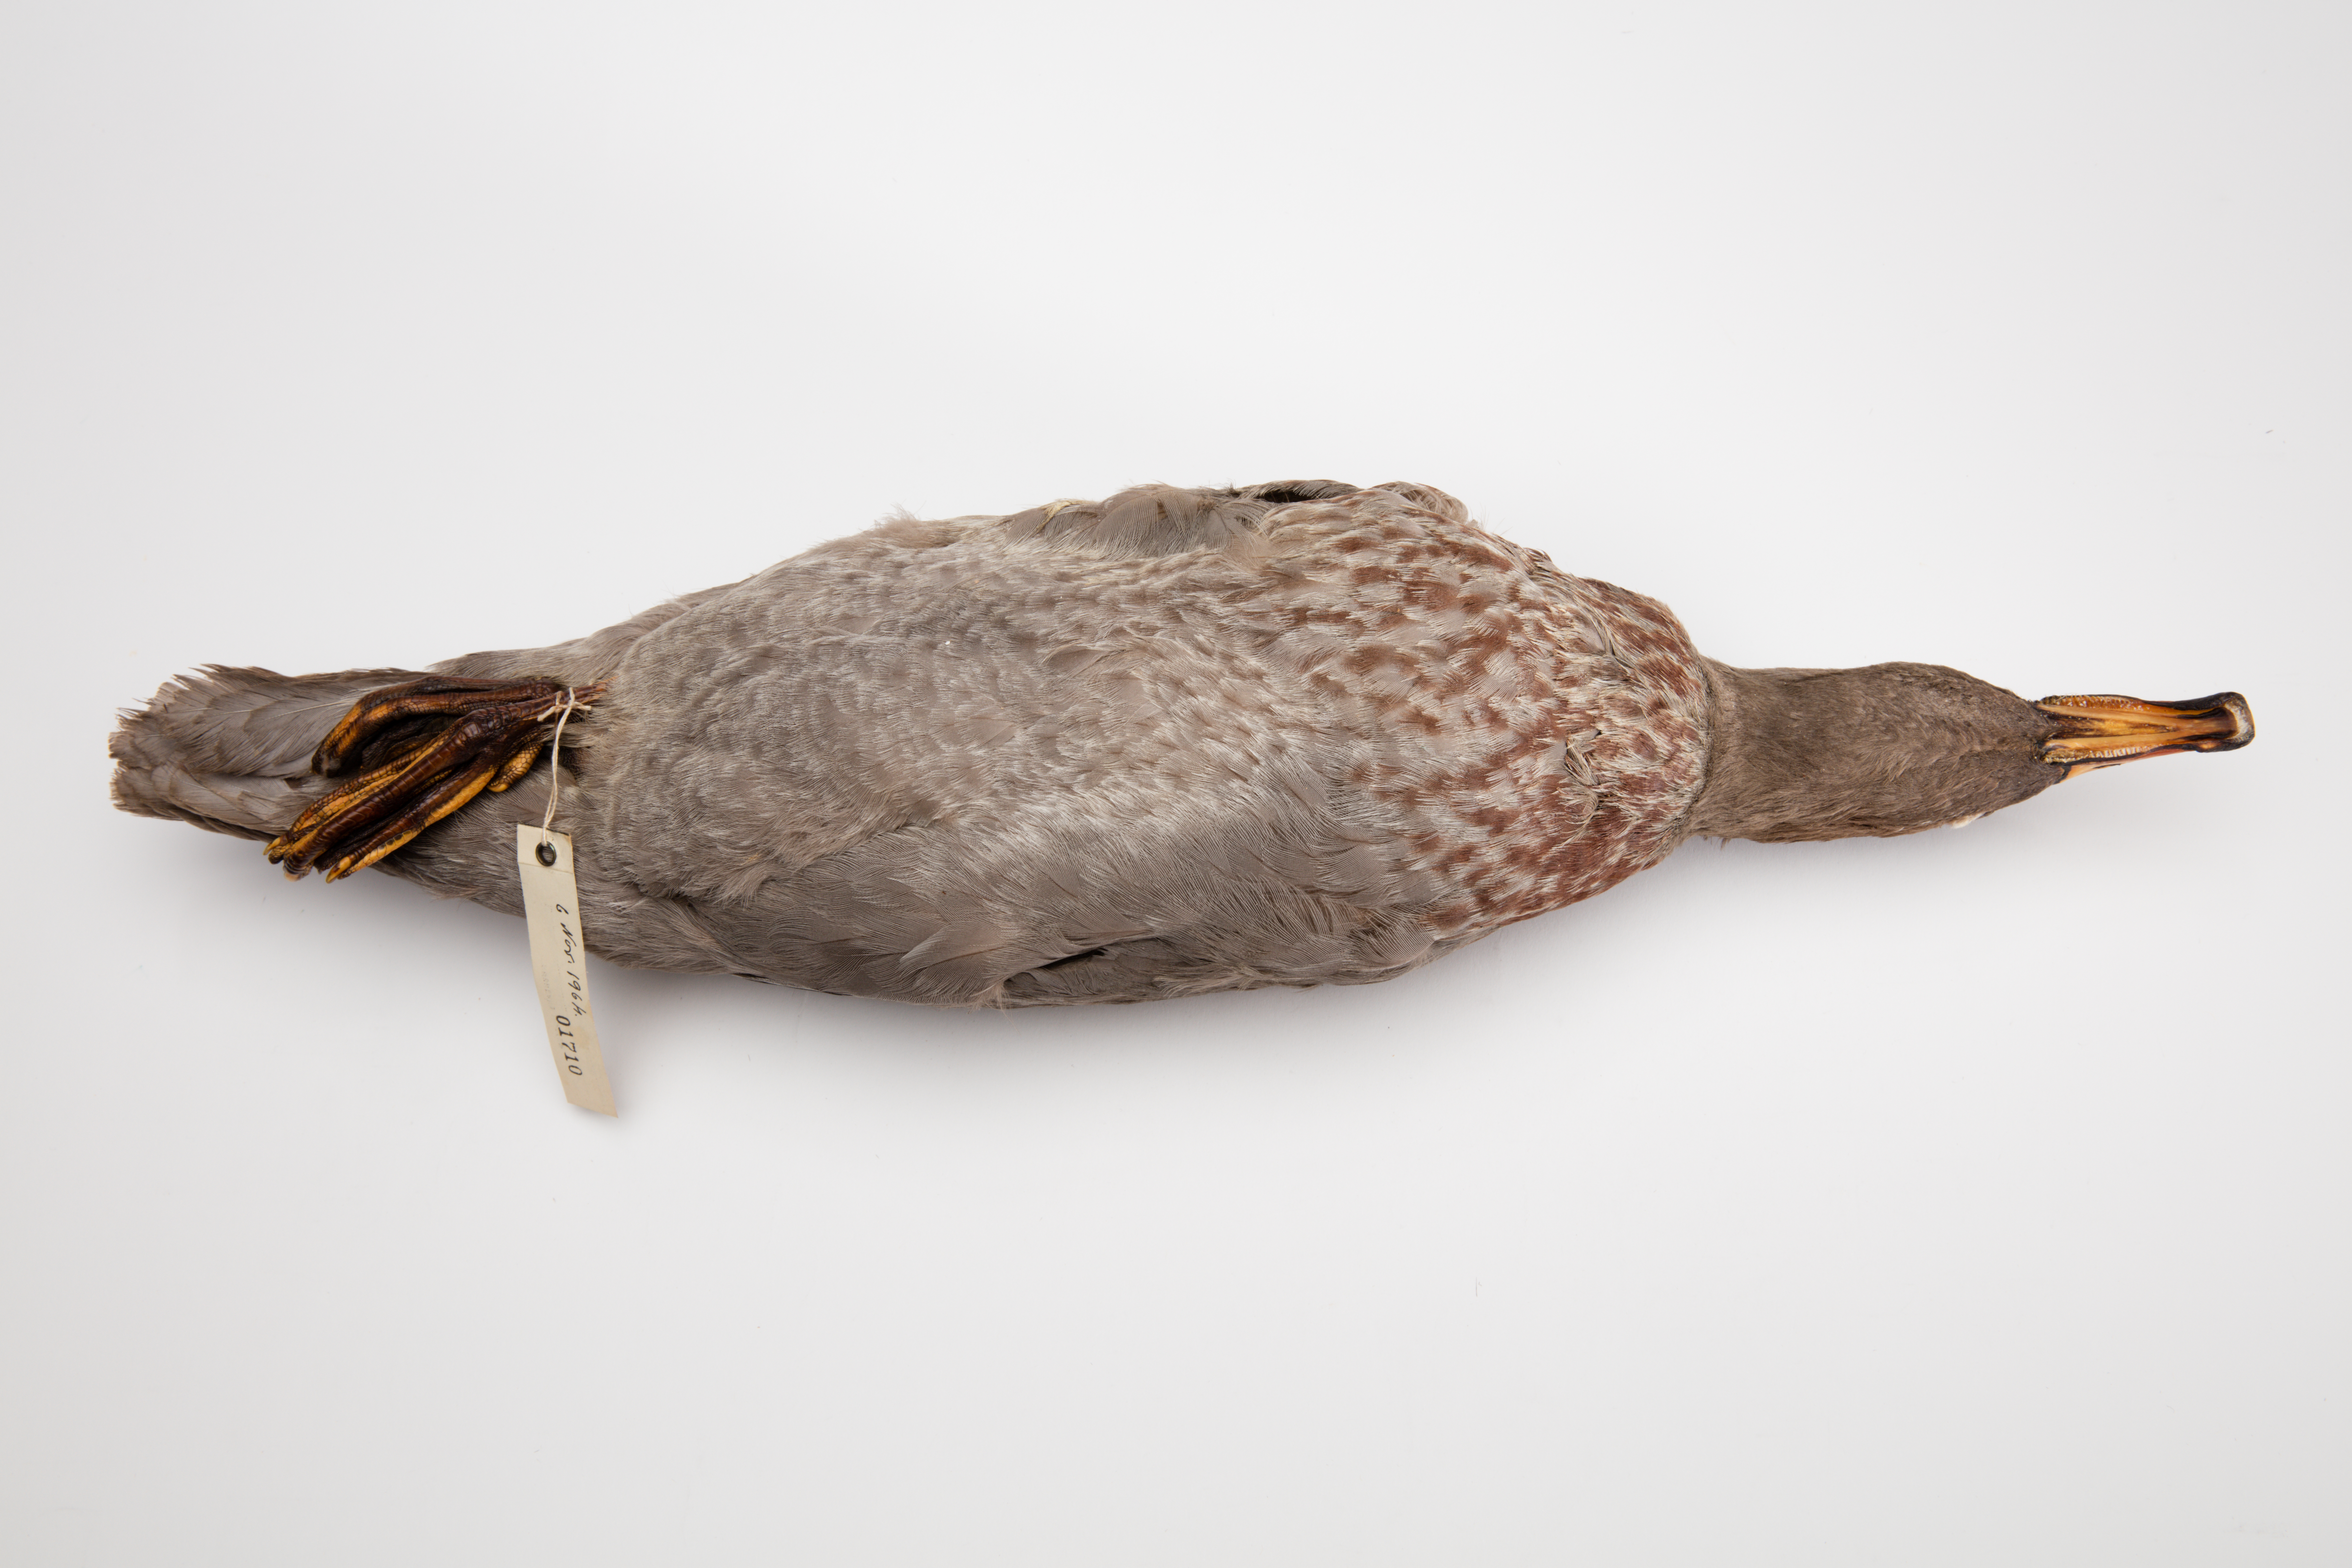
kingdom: Animalia
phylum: Chordata
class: Aves
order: Anseriformes
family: Anatidae
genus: Hymenolaimus
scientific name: Hymenolaimus malacorhynchos
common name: Blue duck
